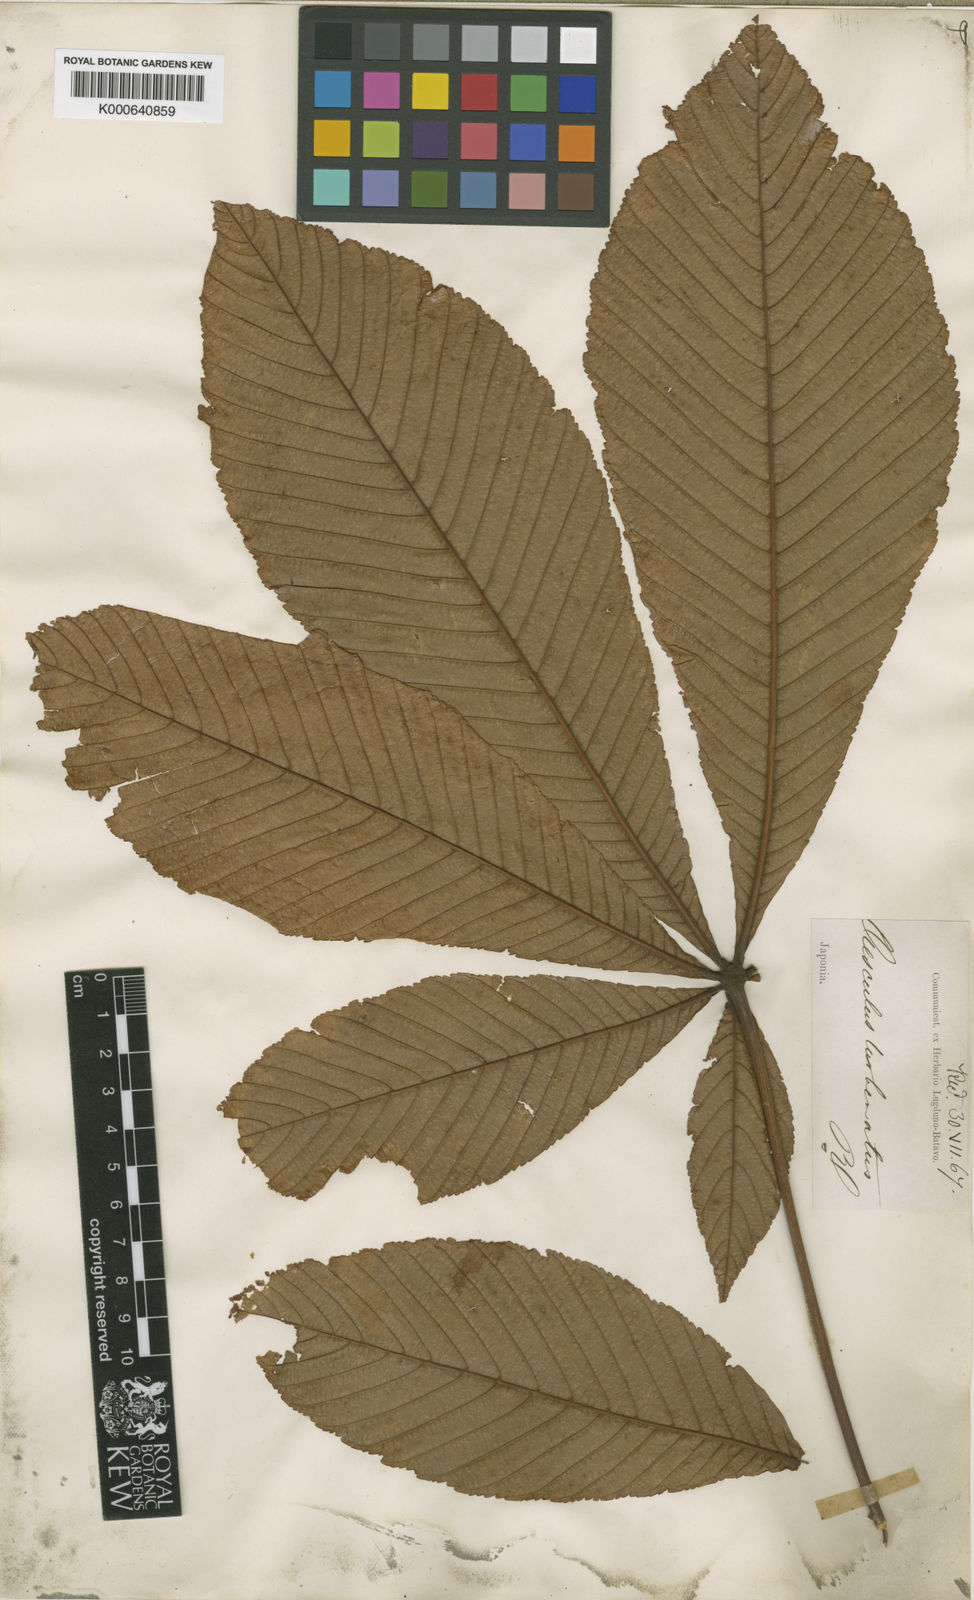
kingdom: Plantae
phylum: Tracheophyta
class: Magnoliopsida
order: Sapindales
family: Sapindaceae
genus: Aesculus
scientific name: Aesculus turbinata
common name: Japanese horse-chestnut
